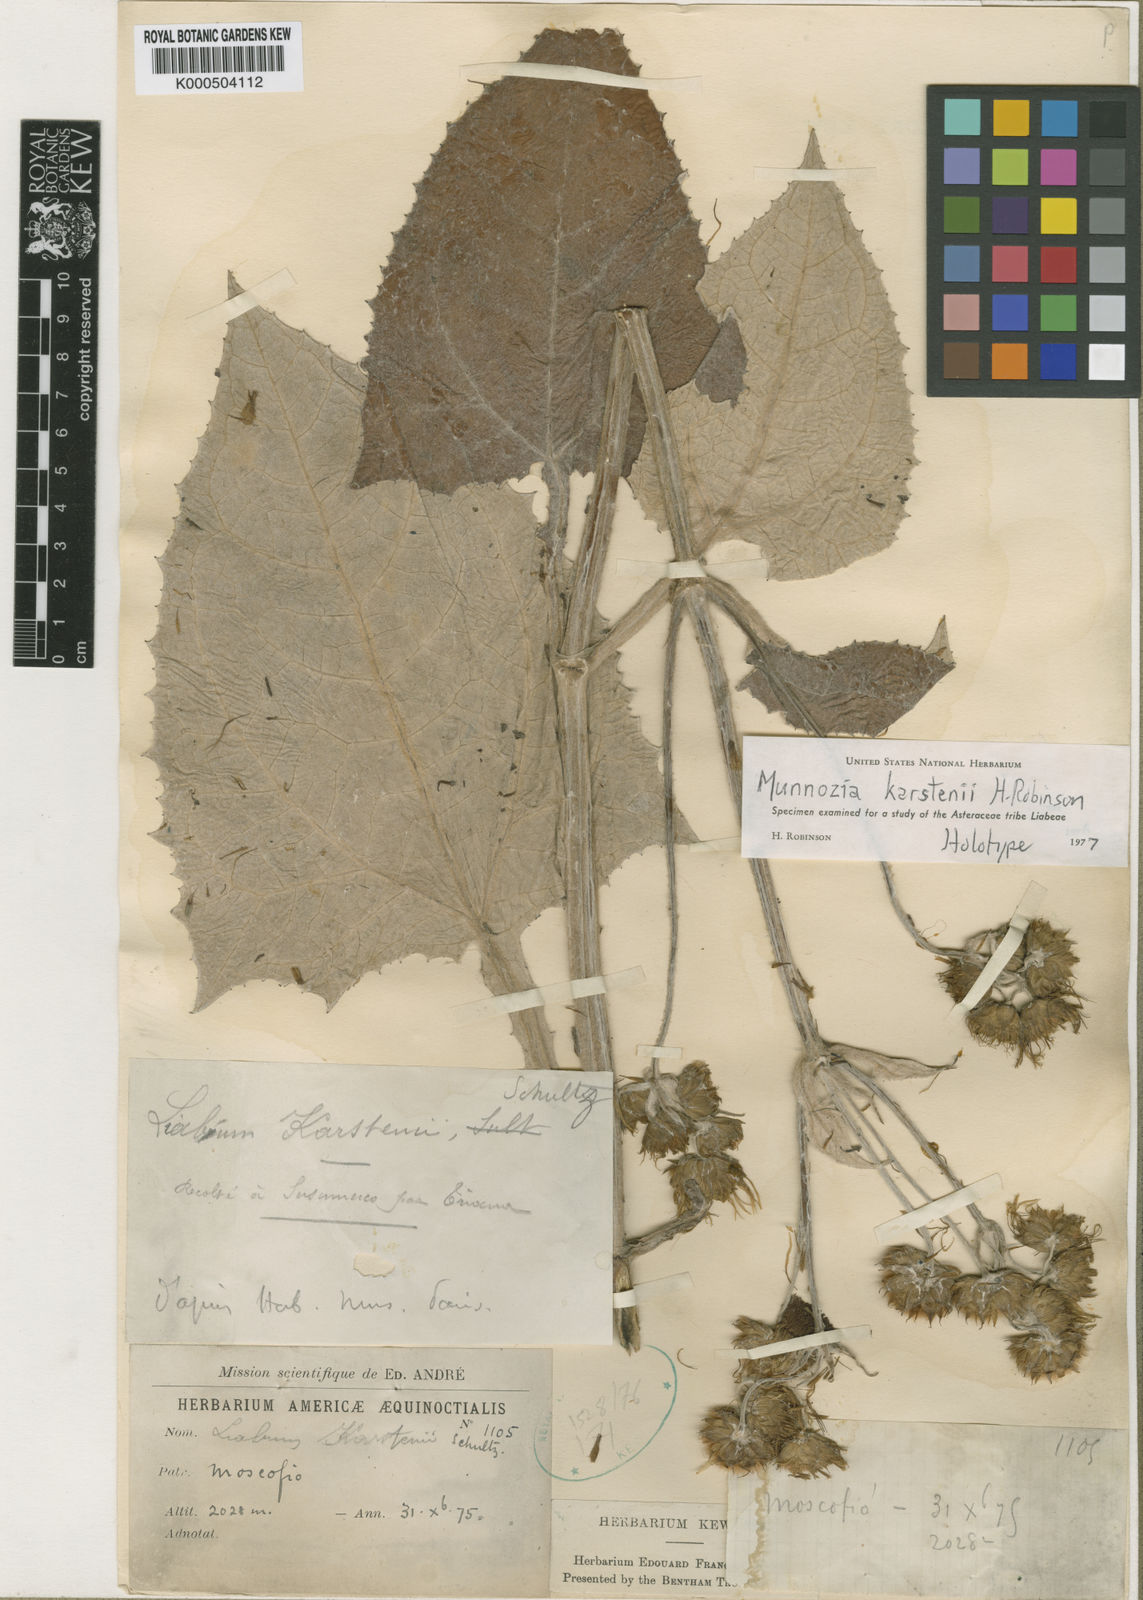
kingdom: Plantae
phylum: Tracheophyta
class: Magnoliopsida
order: Asterales
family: Asteraceae
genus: Munnozia
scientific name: Munnozia karstenii
